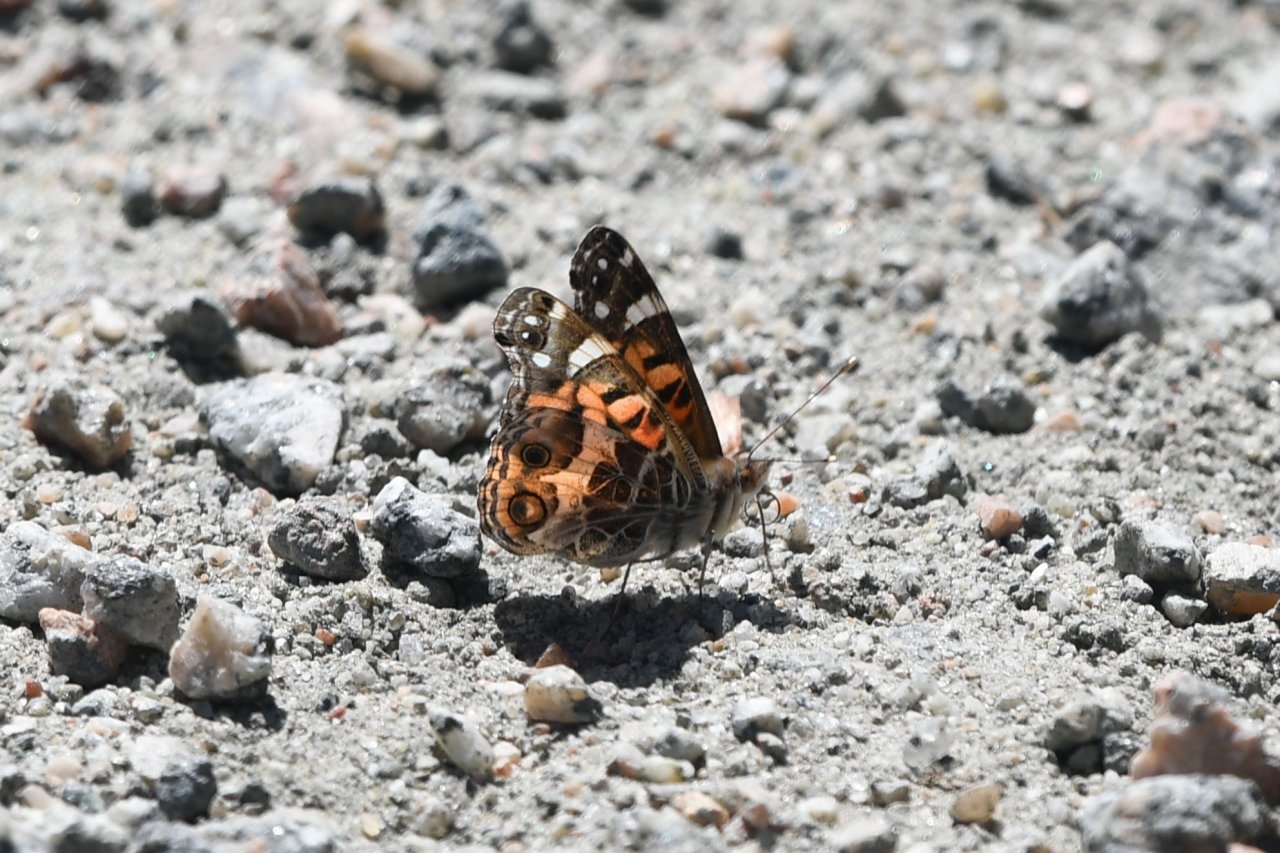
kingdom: Animalia
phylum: Arthropoda
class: Insecta
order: Lepidoptera
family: Nymphalidae
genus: Vanessa
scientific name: Vanessa virginiensis
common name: American Lady
